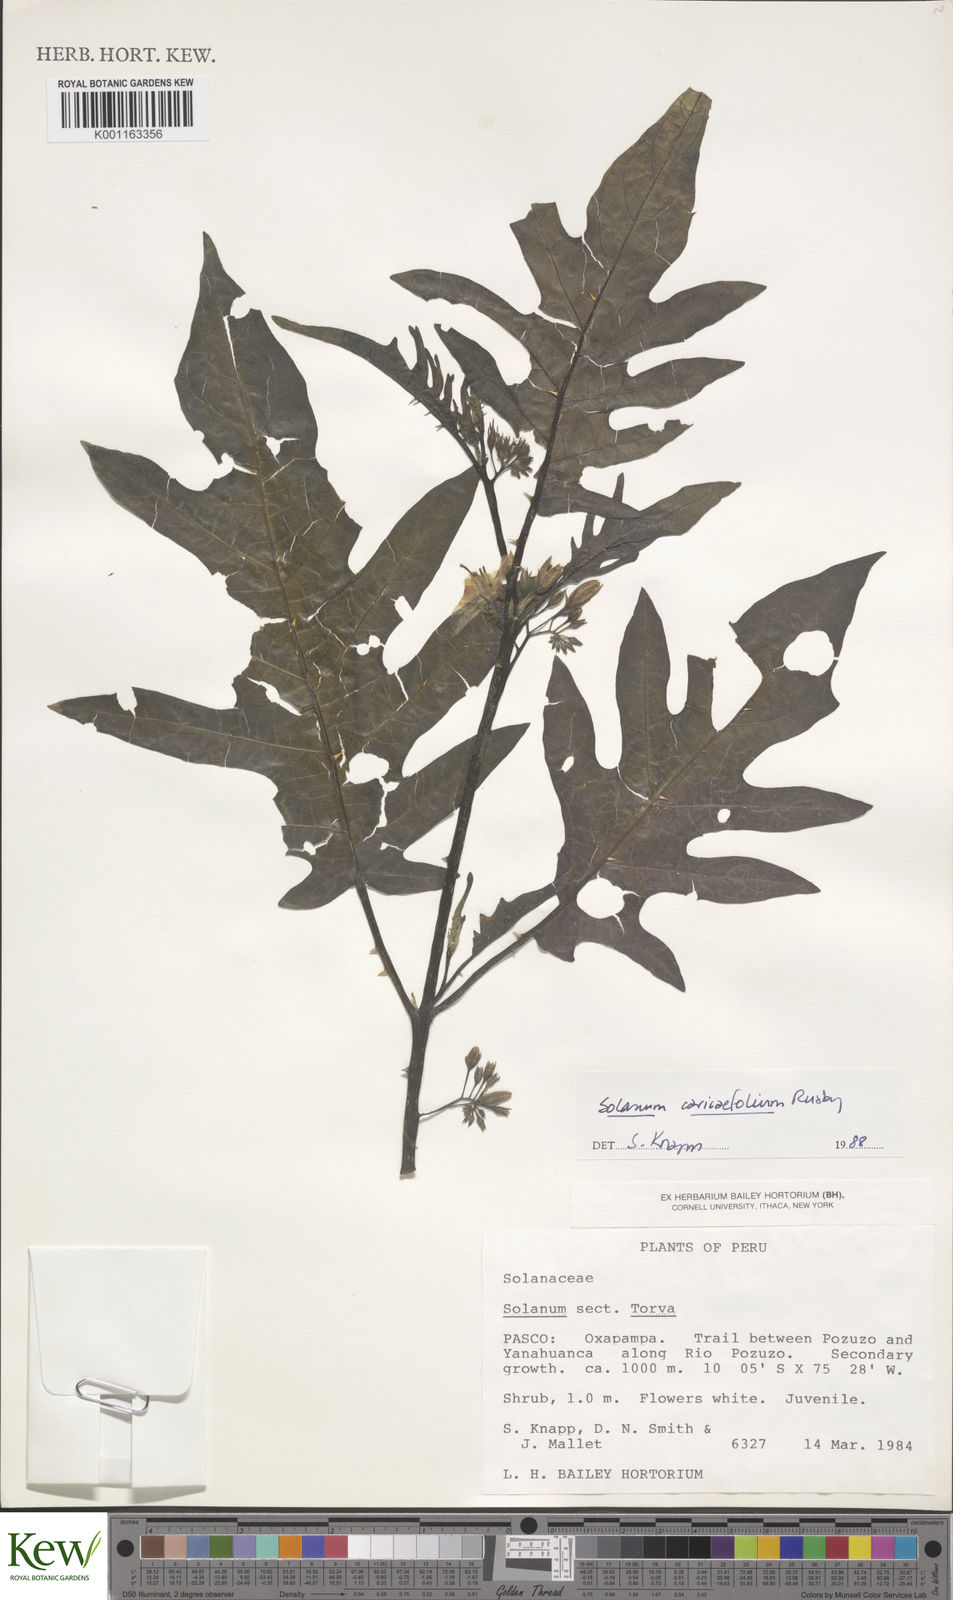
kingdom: Plantae
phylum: Tracheophyta
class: Magnoliopsida
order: Solanales
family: Solanaceae
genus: Solanum
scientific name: Solanum caricaefolium
